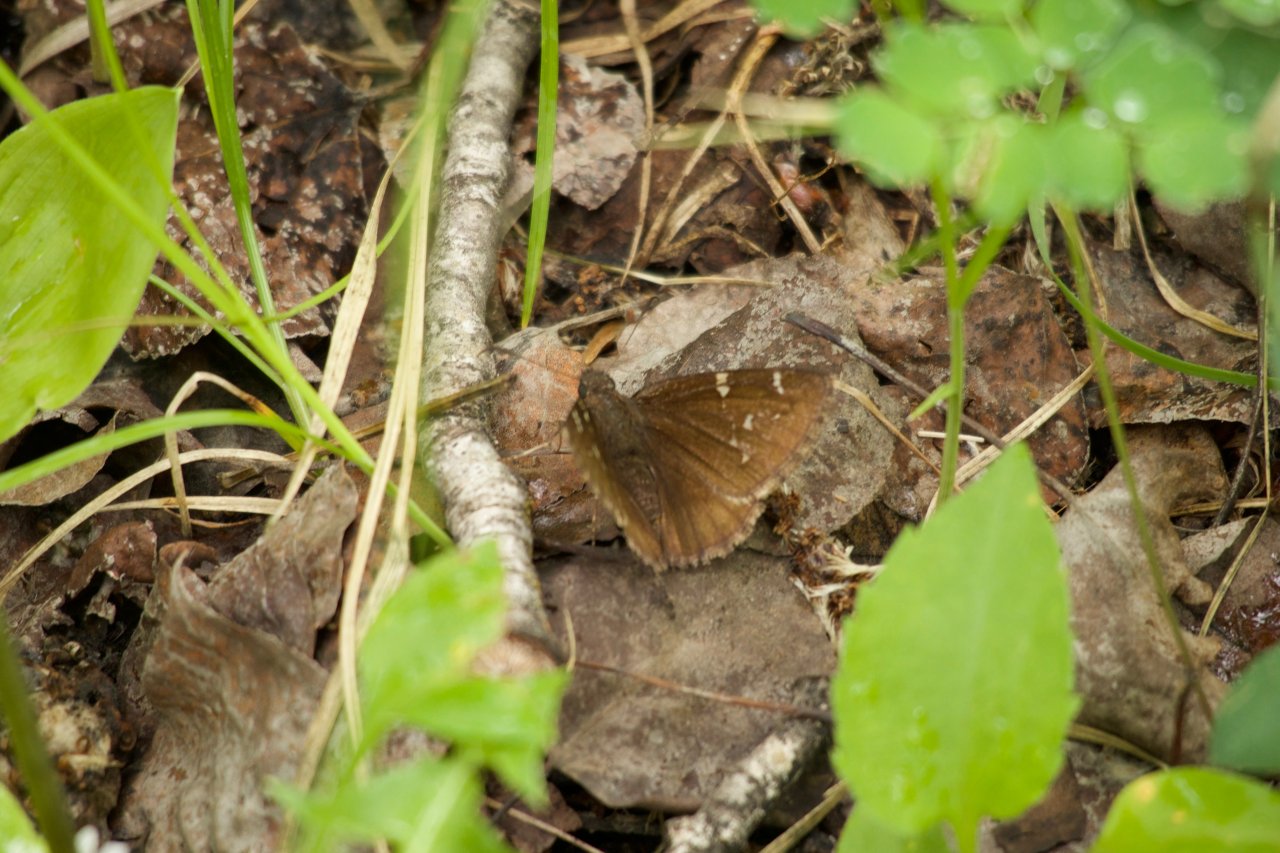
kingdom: Animalia
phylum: Arthropoda
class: Insecta
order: Lepidoptera
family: Hesperiidae
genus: Autochton
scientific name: Autochton
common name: Northern Cloudywing
